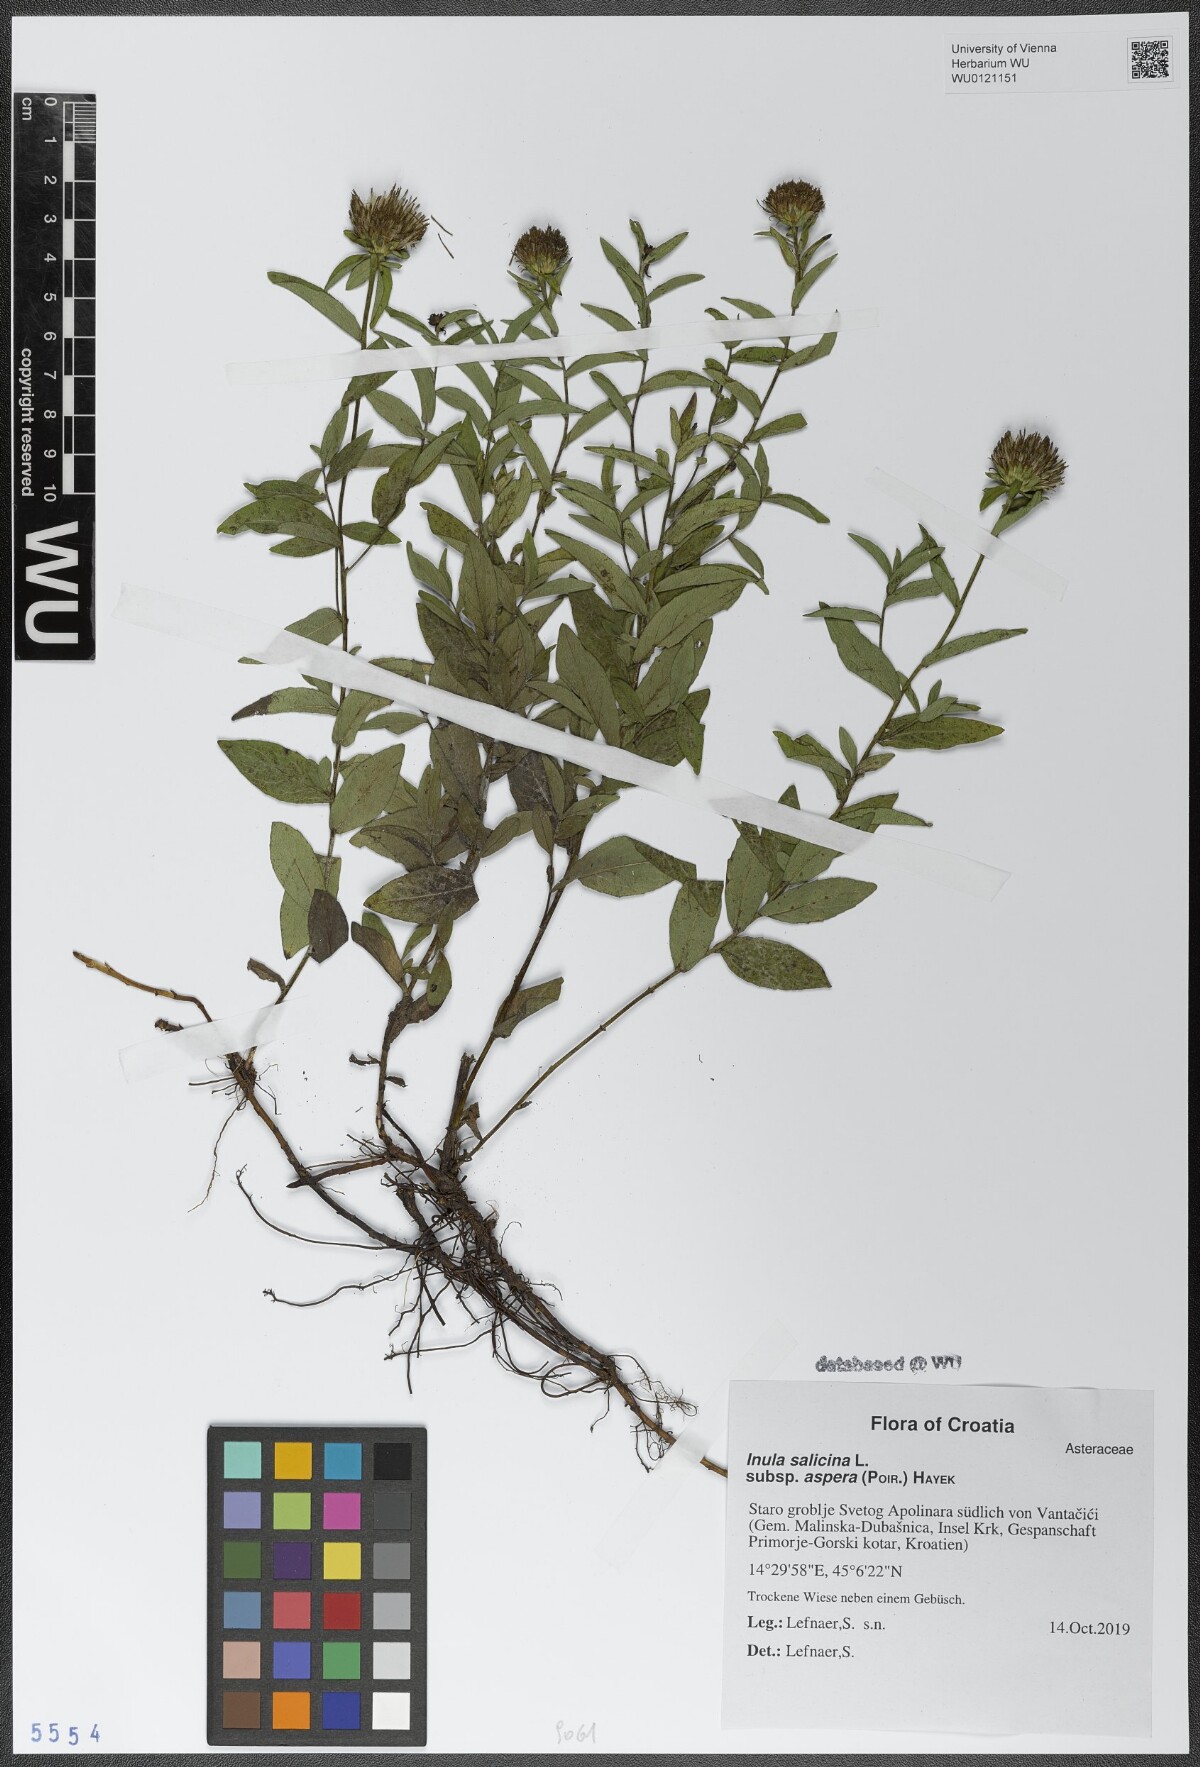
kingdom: Plantae
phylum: Tracheophyta
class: Magnoliopsida
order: Asterales
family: Asteraceae
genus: Pentanema
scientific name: Pentanema asperum
